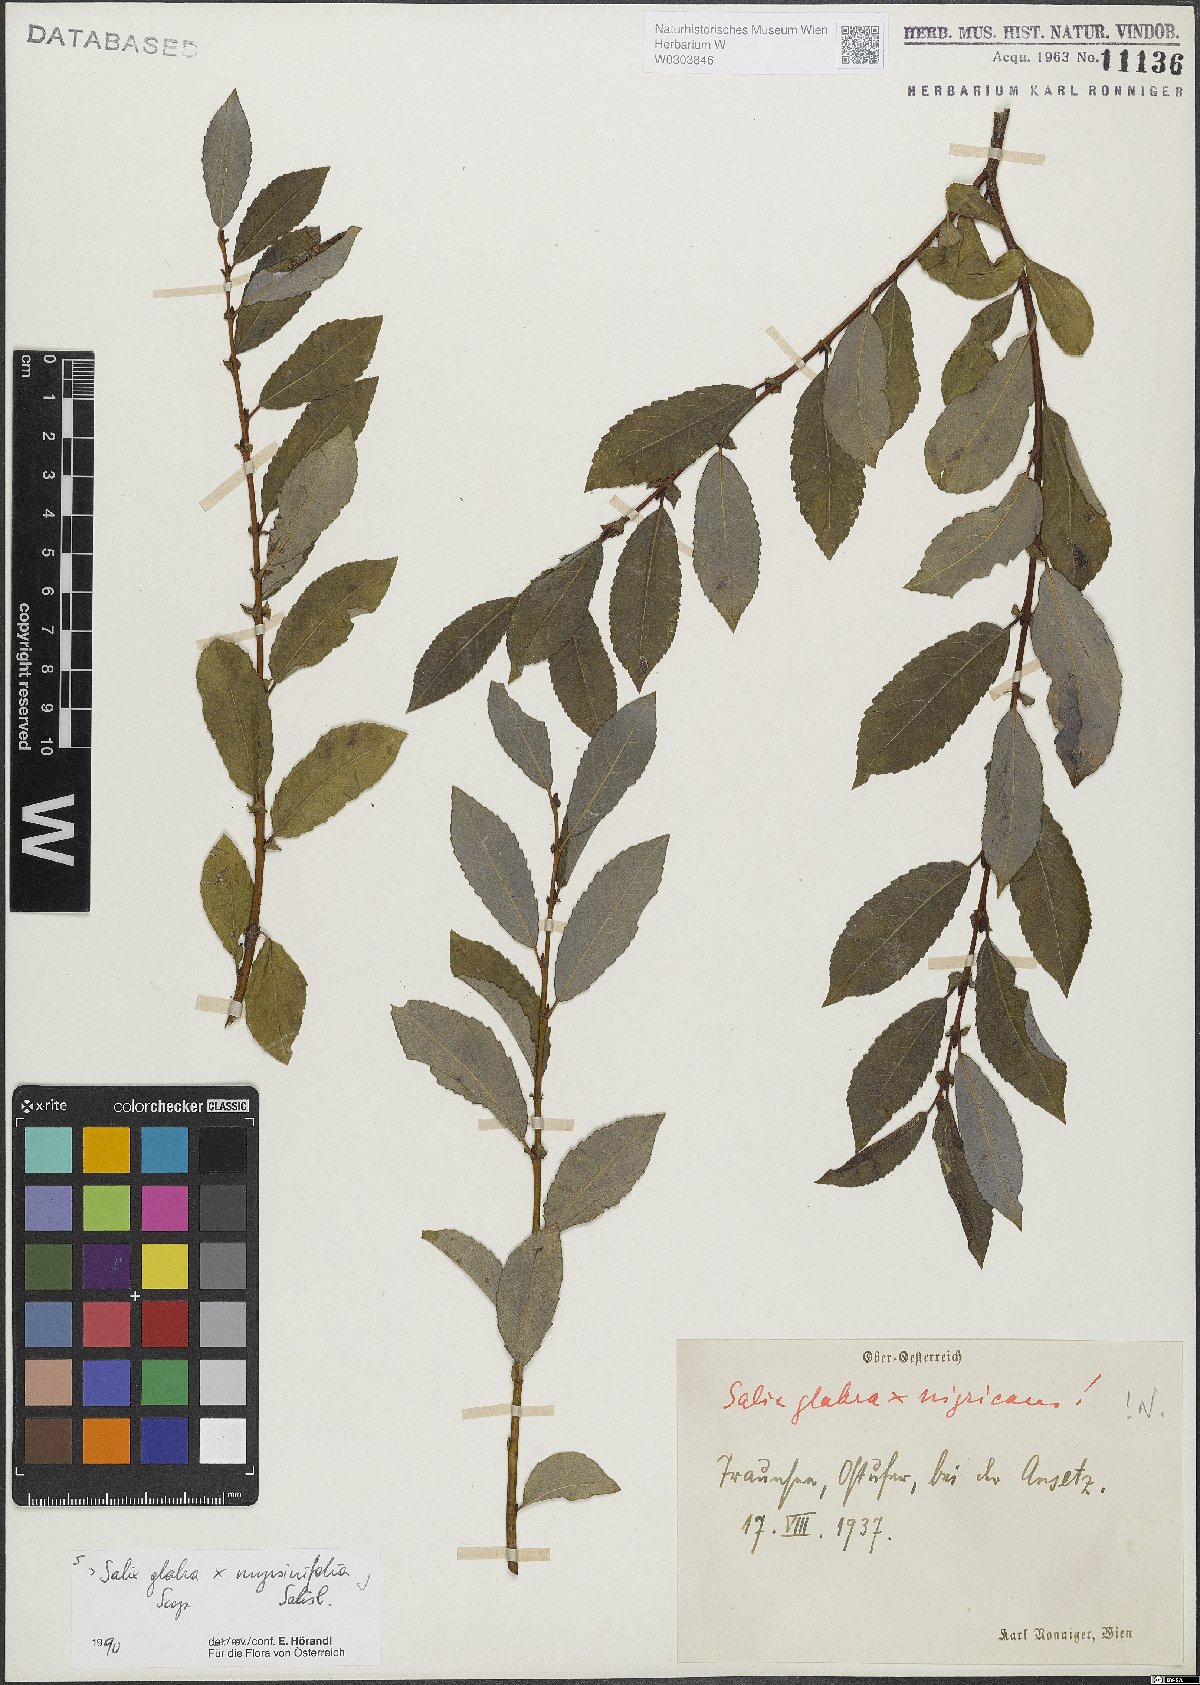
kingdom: Plantae
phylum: Tracheophyta
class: Magnoliopsida
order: Malpighiales
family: Salicaceae
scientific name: Salicaceae
